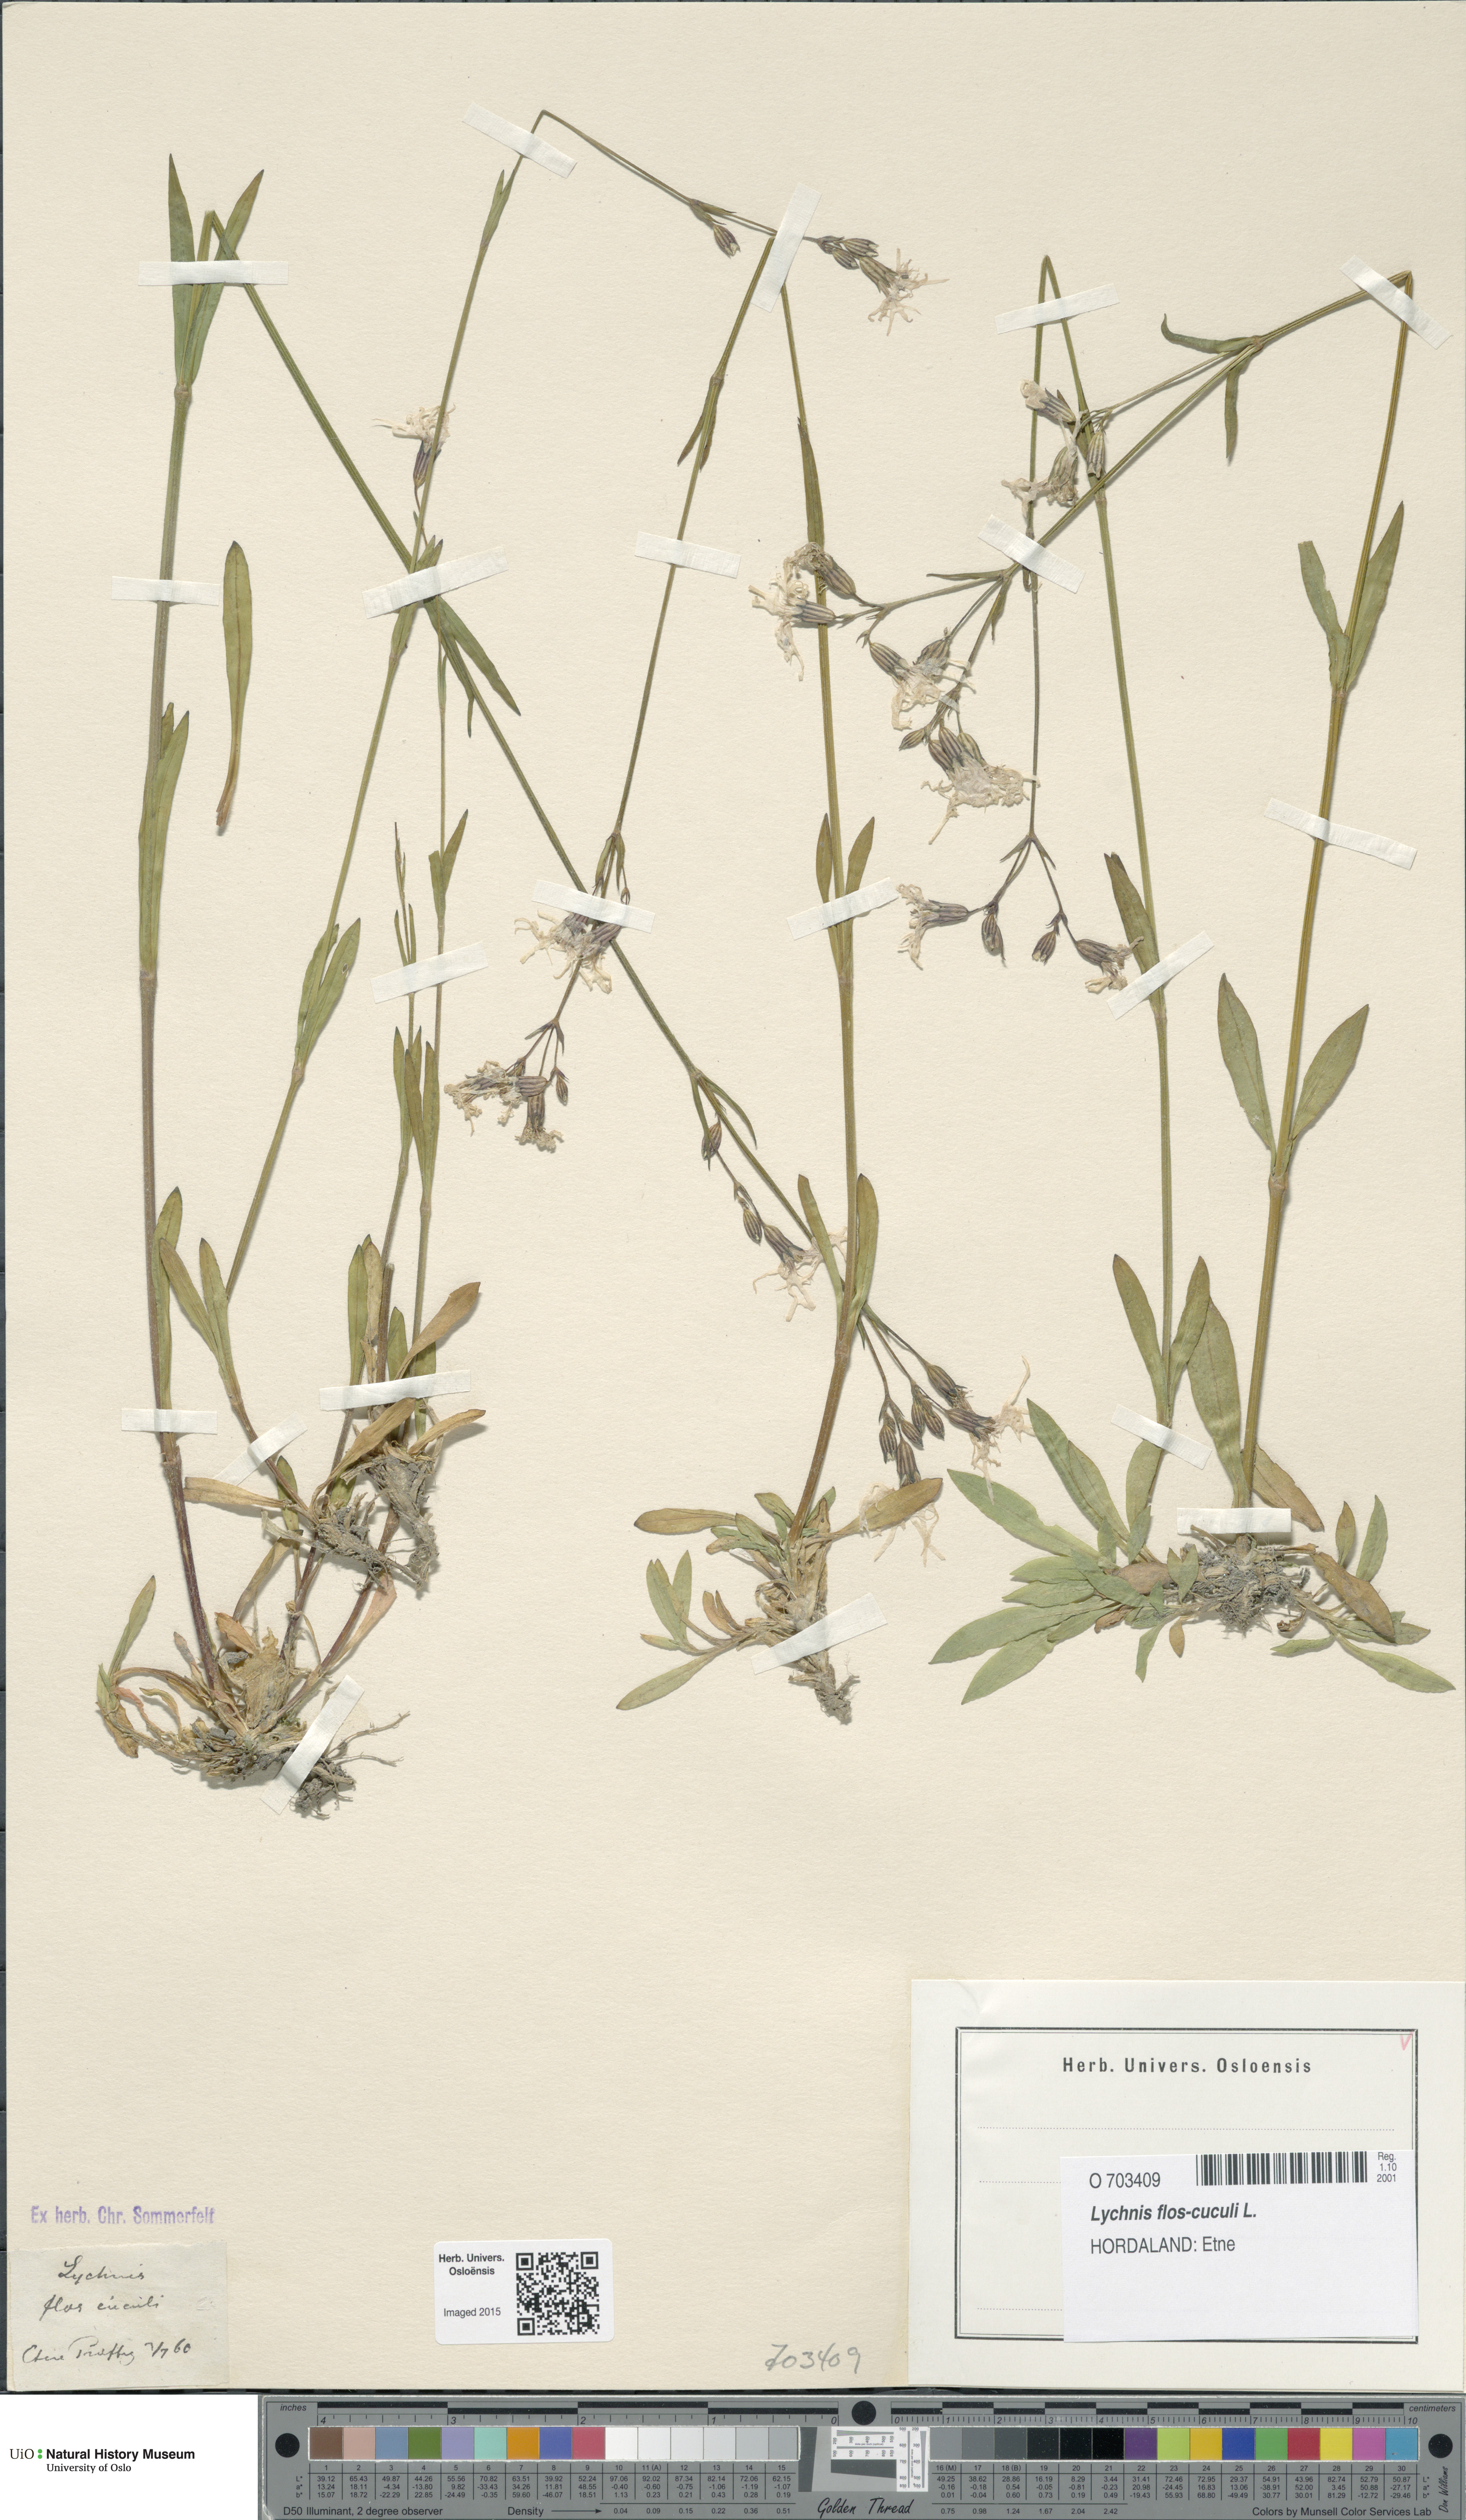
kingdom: Plantae
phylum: Tracheophyta
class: Magnoliopsida
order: Caryophyllales
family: Caryophyllaceae
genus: Silene
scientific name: Silene flos-cuculi
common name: Ragged-robin
